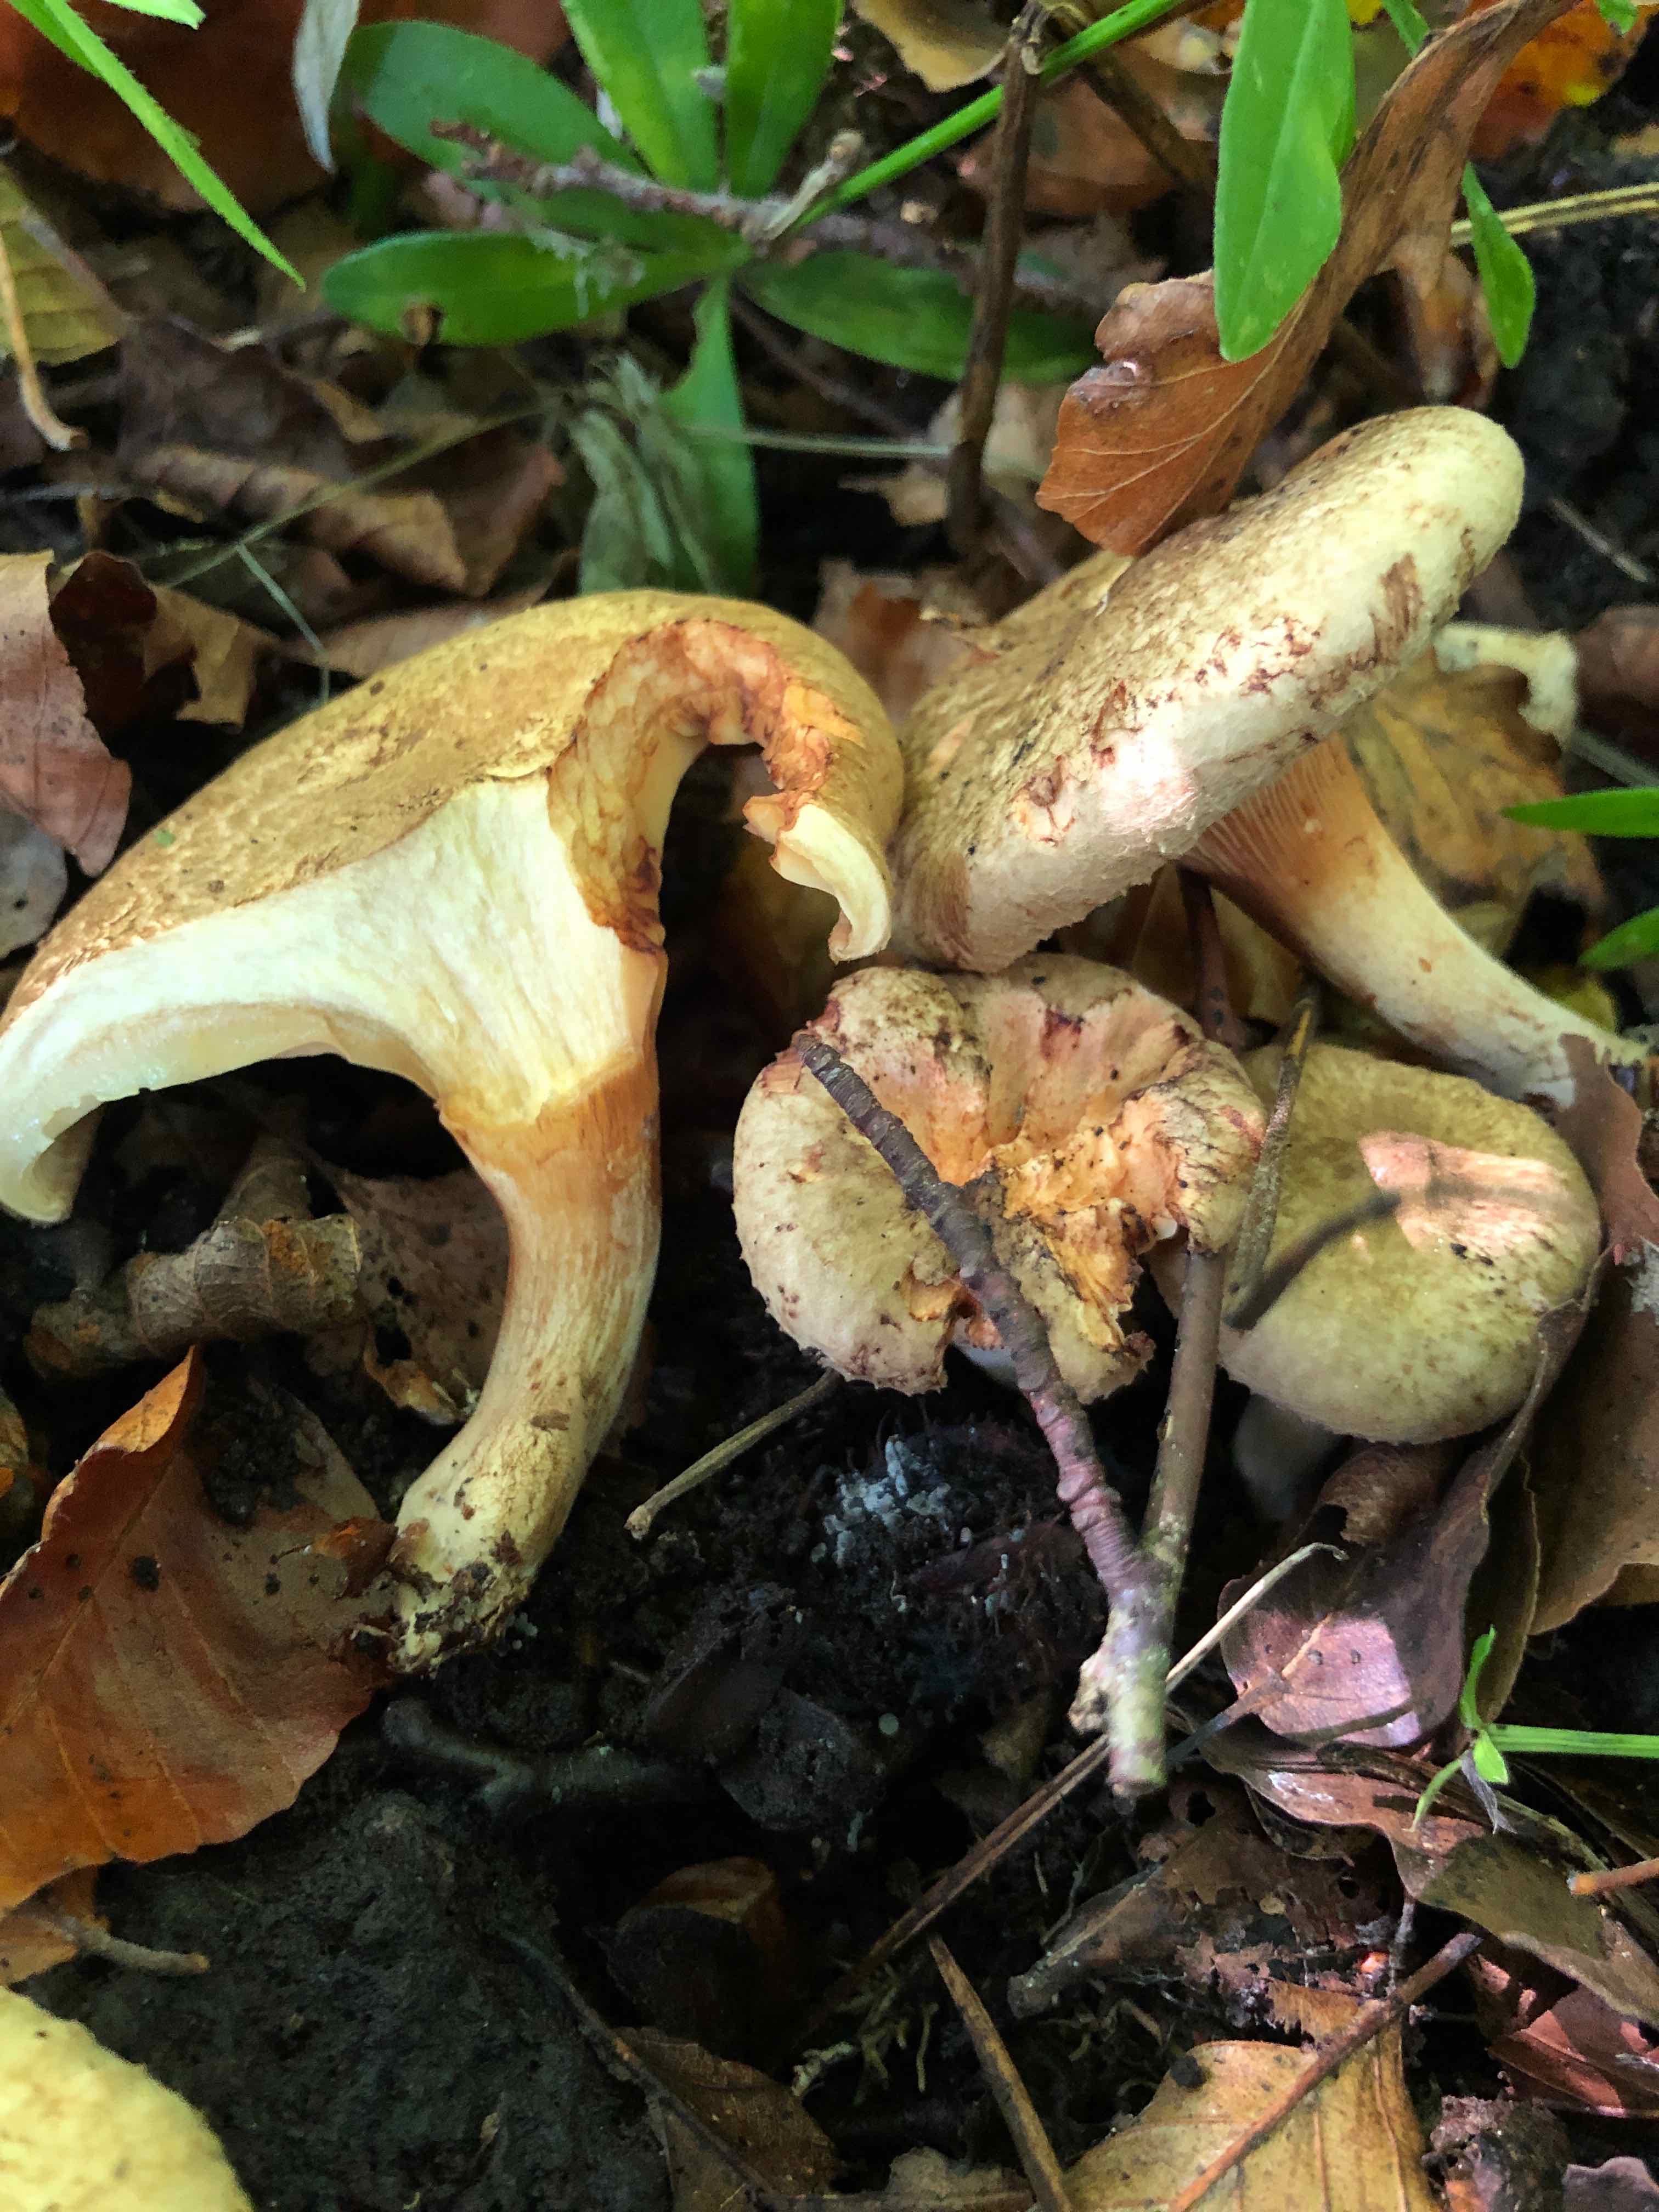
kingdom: Fungi
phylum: Basidiomycota
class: Agaricomycetes
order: Boletales
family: Paxillaceae
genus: Paxillus
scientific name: Paxillus rubicundulus
